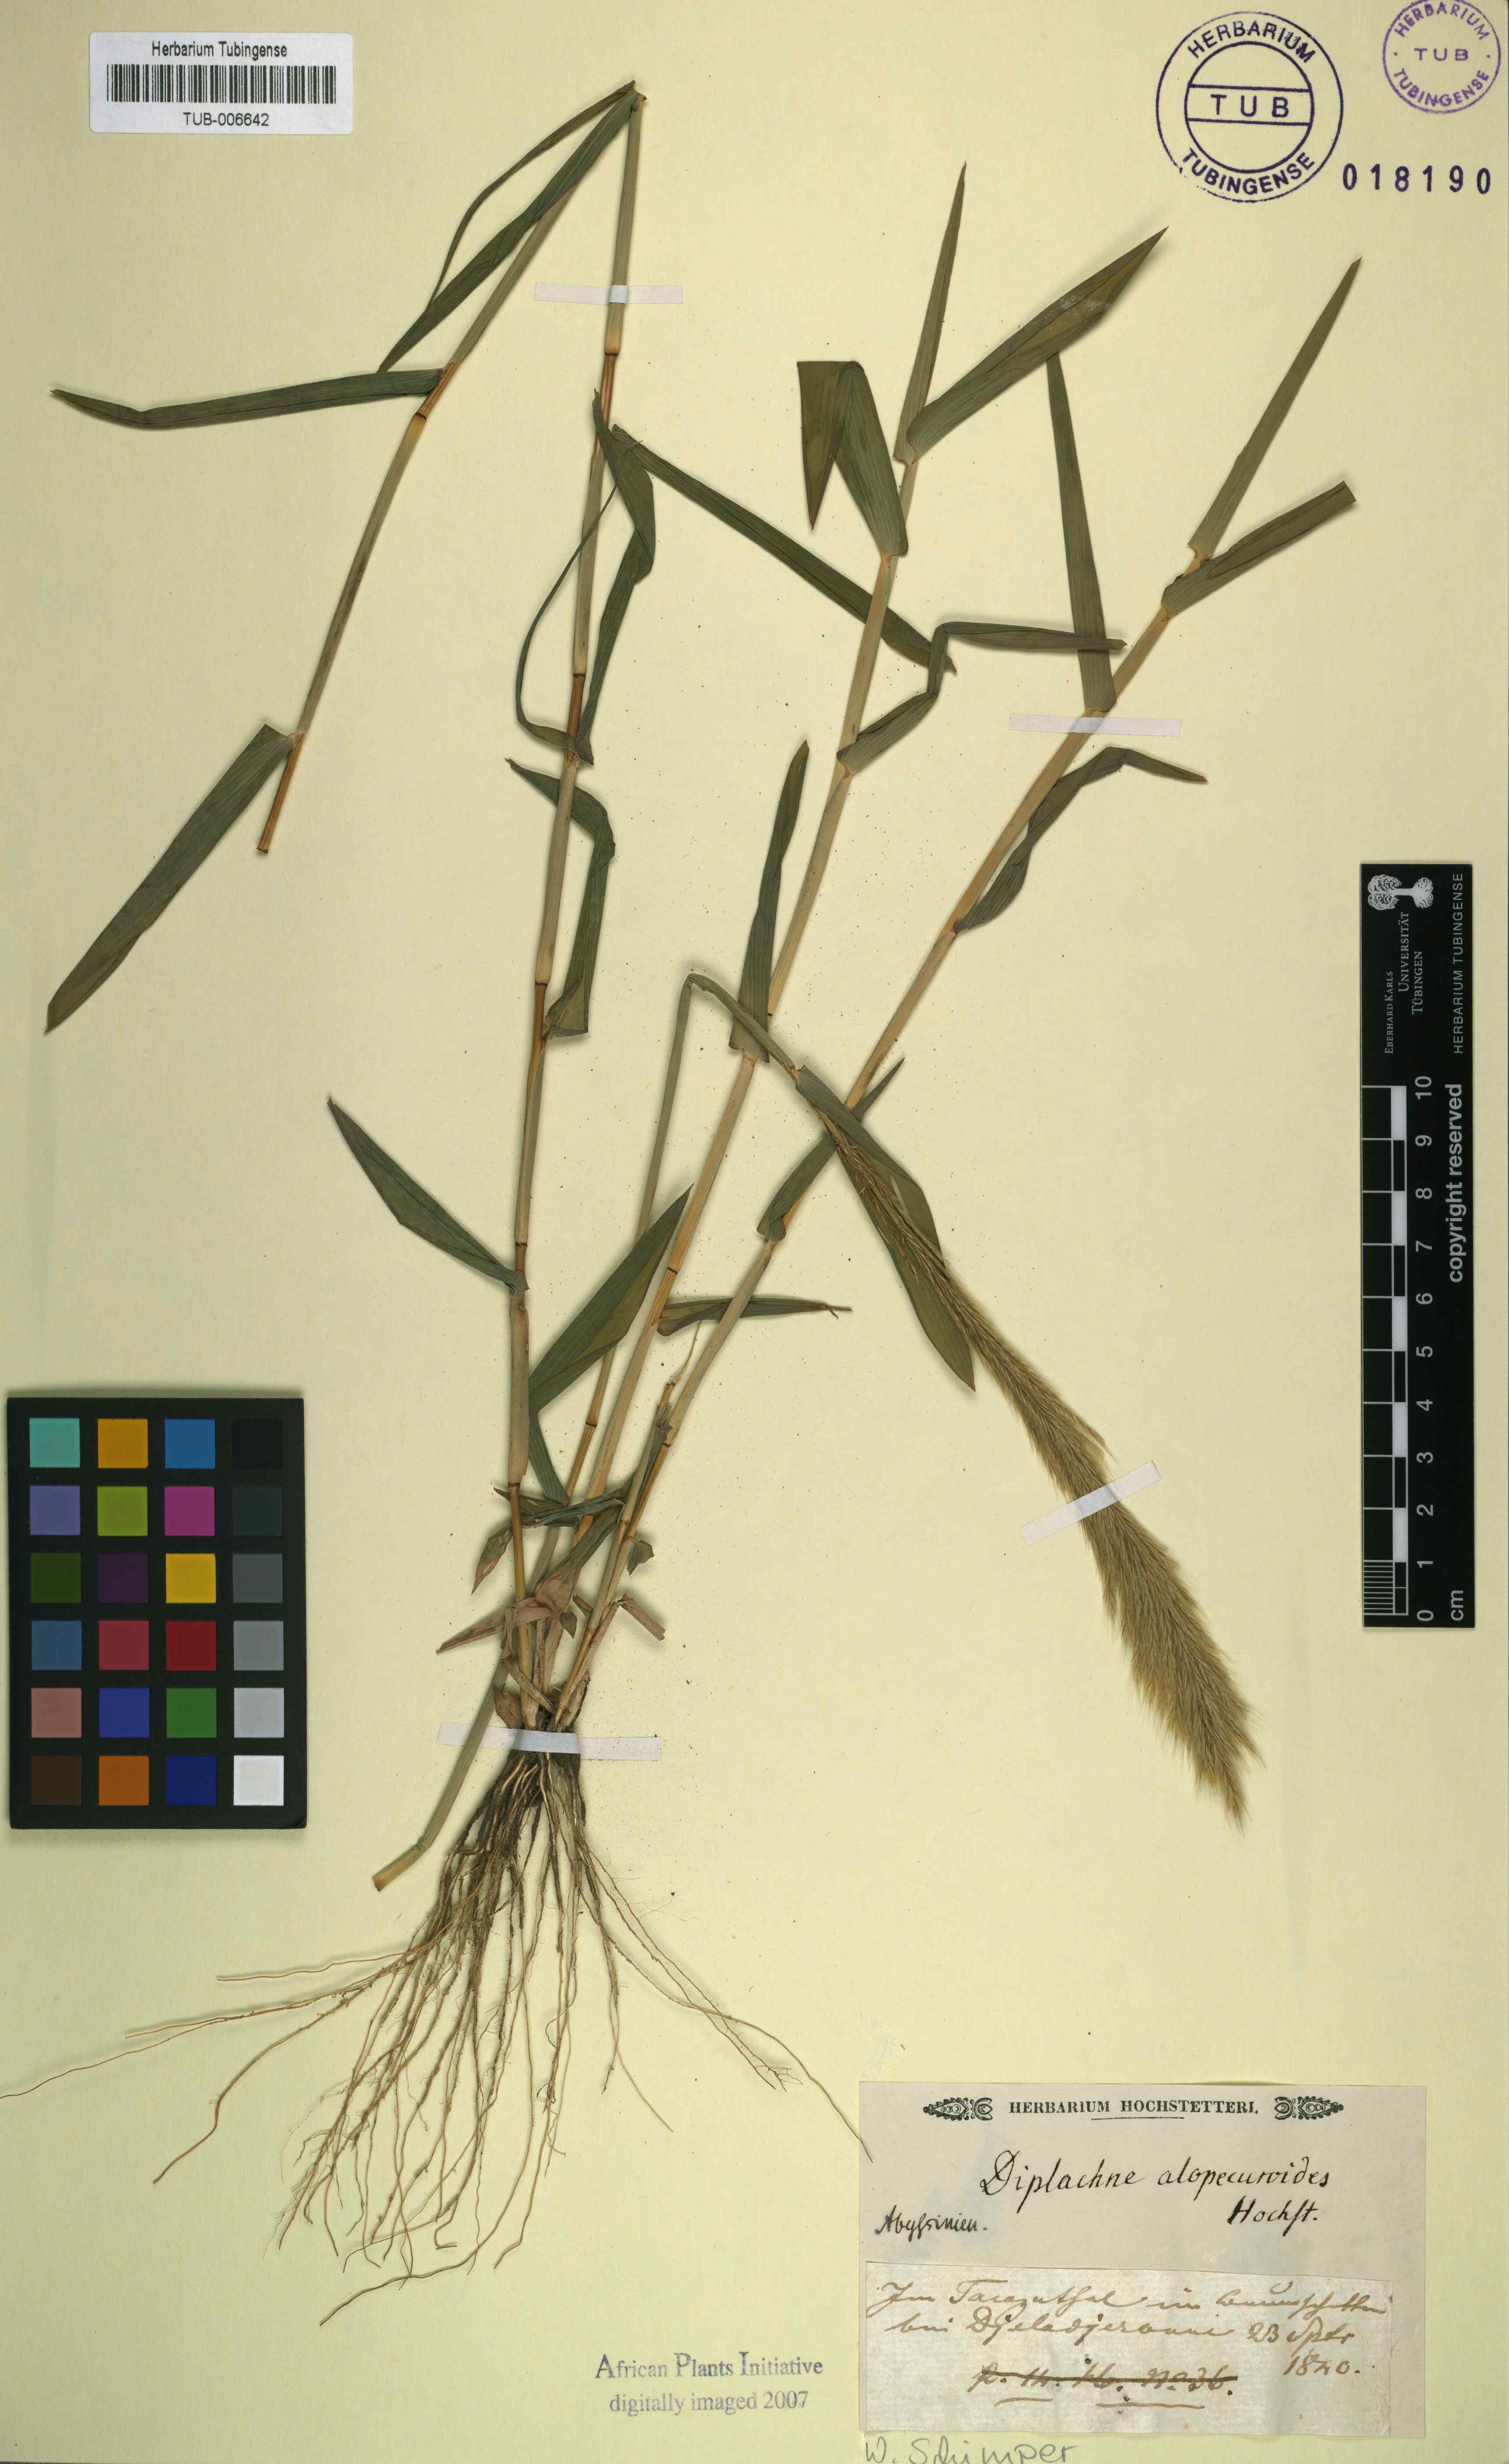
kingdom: Plantae
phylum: Tracheophyta
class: Liliopsida
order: Poales
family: Poaceae
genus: Leptocarydion
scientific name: Leptocarydion vulpiastrum
